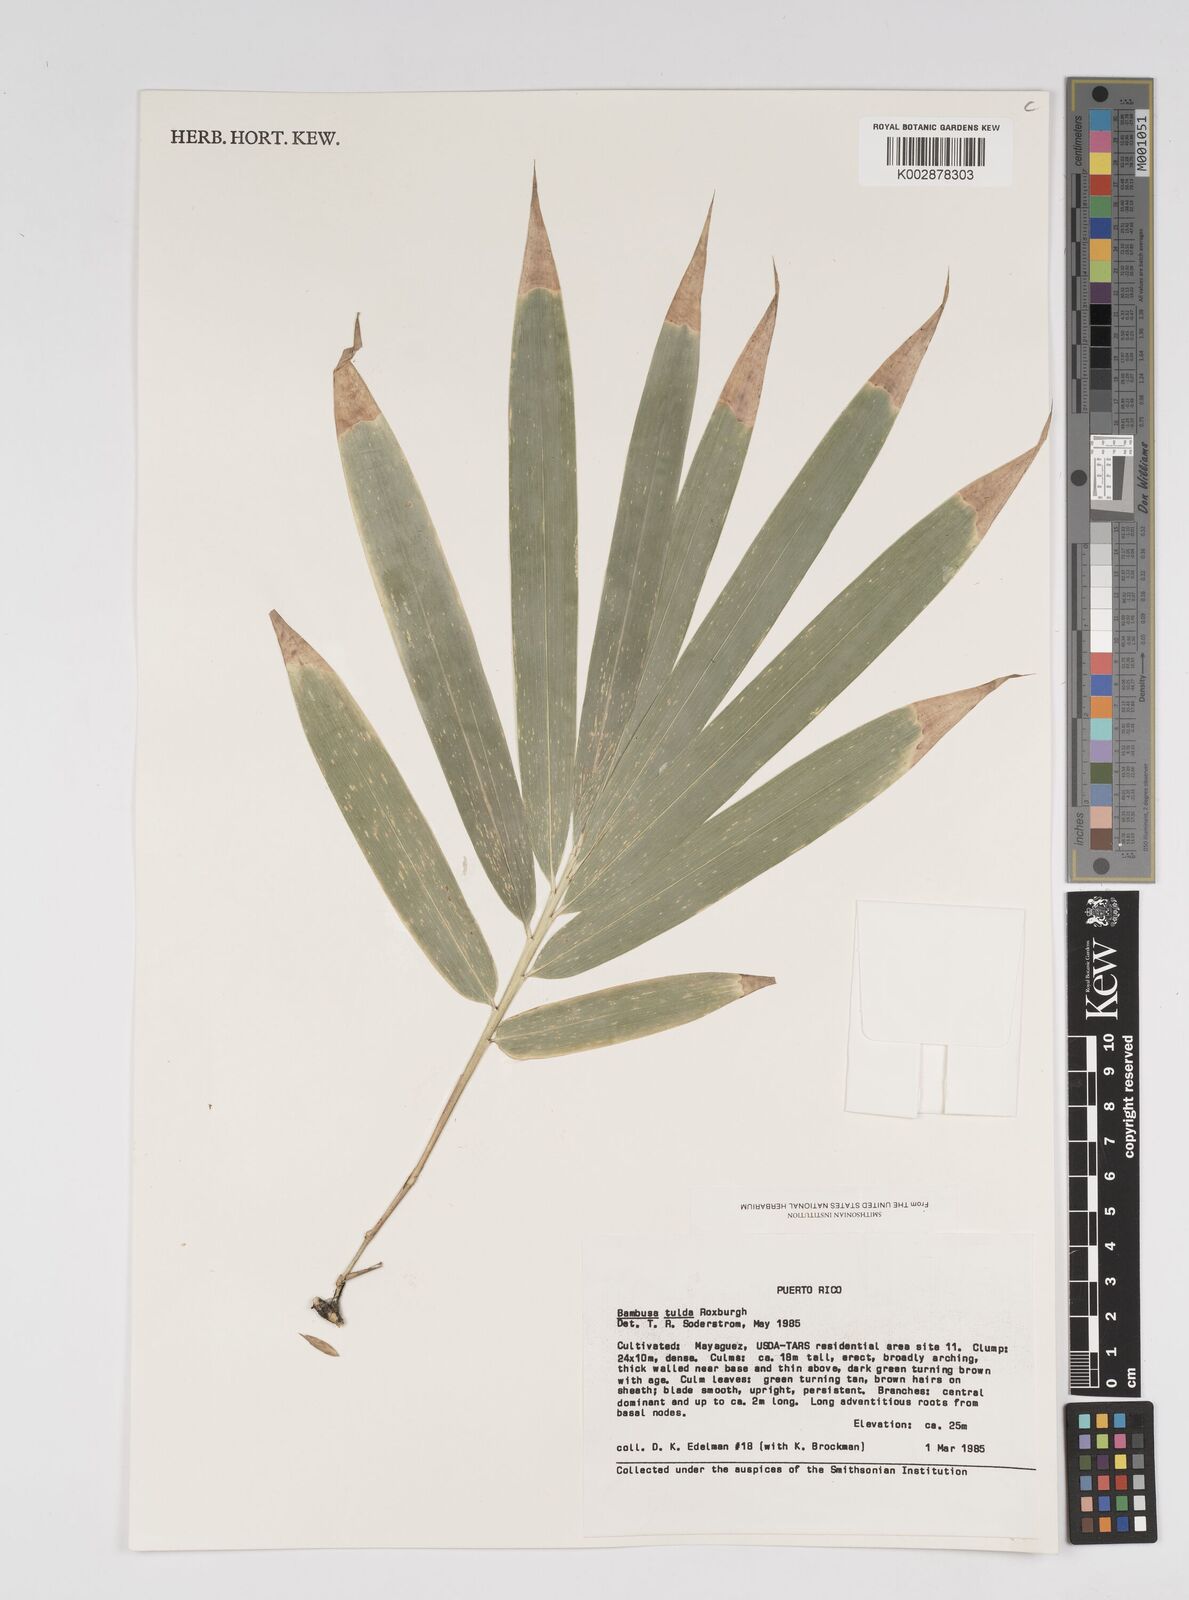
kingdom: Plantae
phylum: Tracheophyta
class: Liliopsida
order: Poales
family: Poaceae
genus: Bambusa
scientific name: Bambusa vulgaris
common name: Common bamboo
